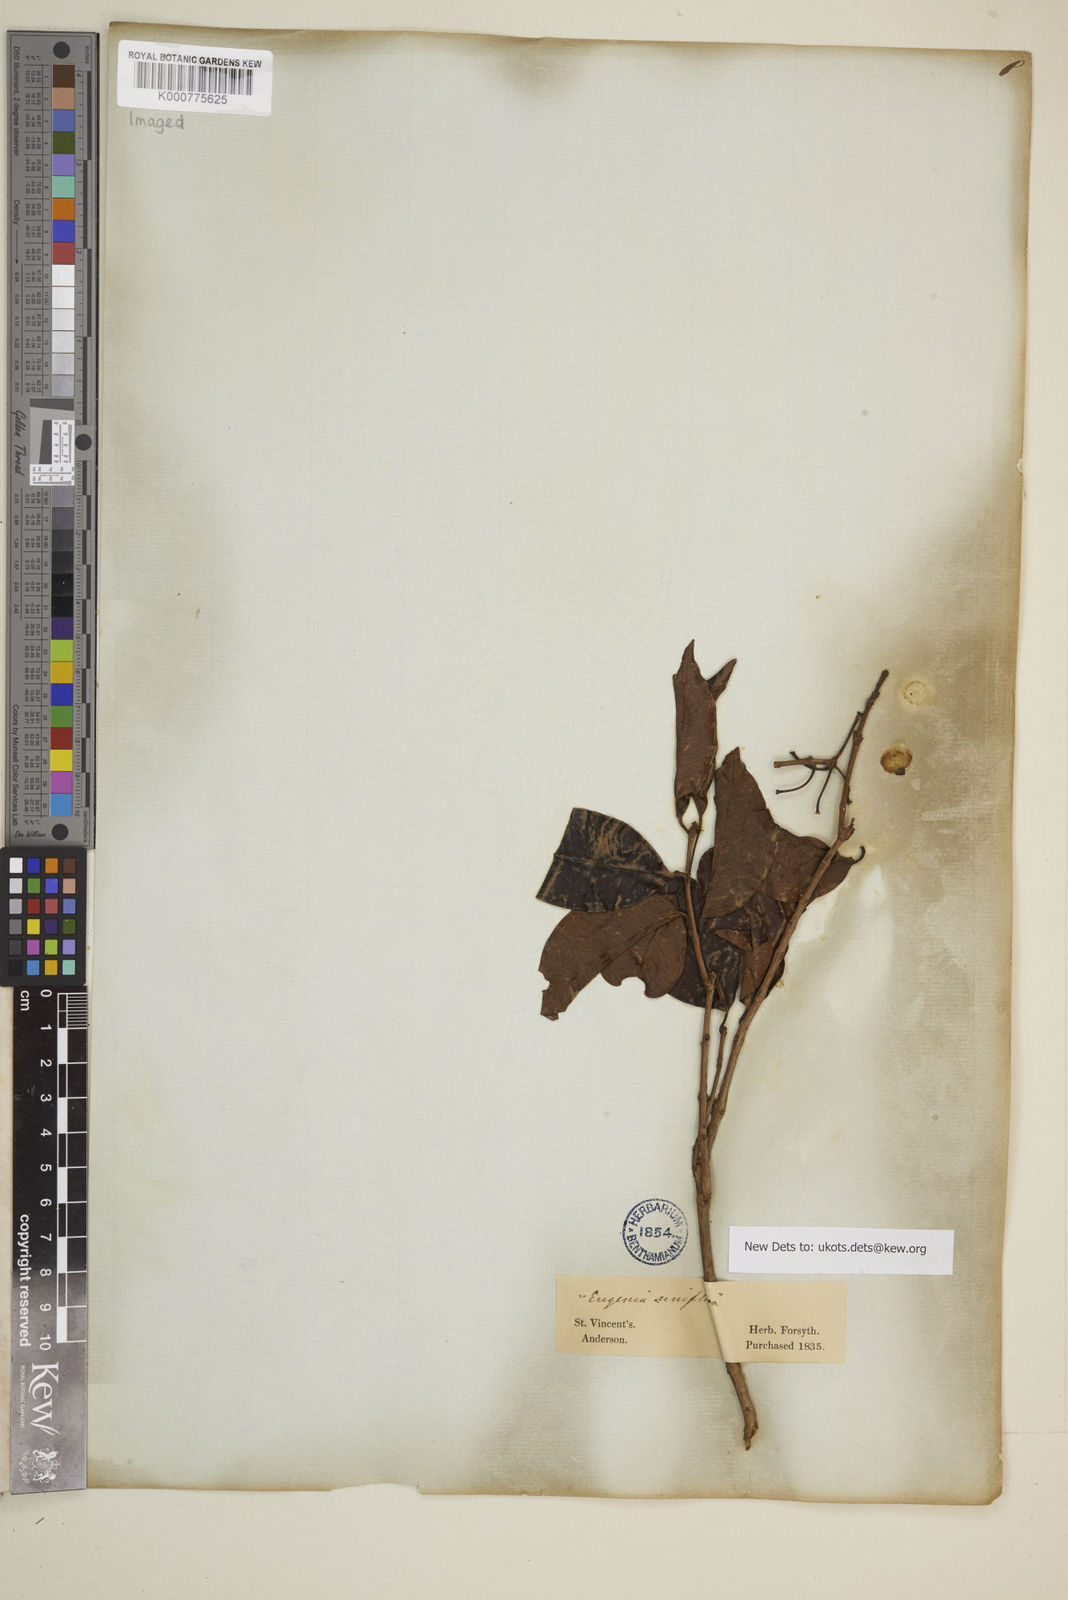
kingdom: Plantae
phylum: Tracheophyta
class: Magnoliopsida
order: Myrtales
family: Myrtaceae
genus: Eugenia
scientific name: Eugenia cordata
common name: Lathberry
